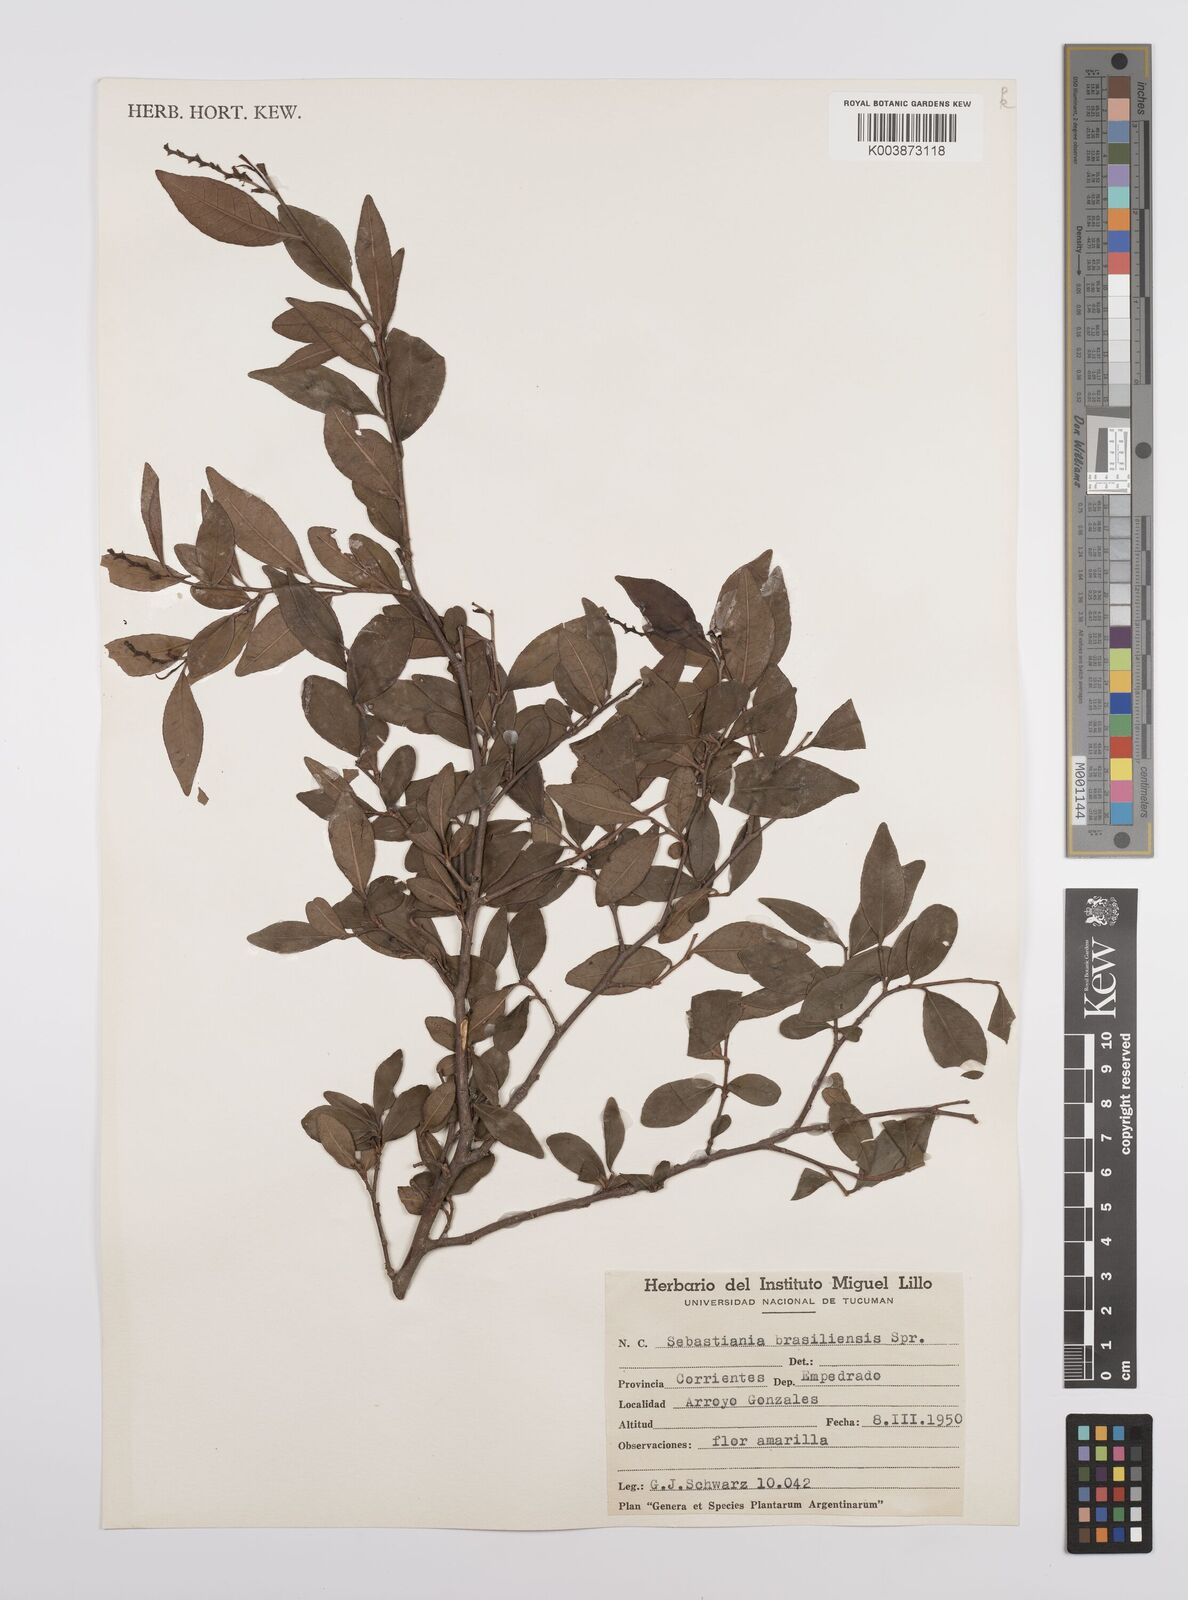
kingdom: Plantae
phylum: Tracheophyta
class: Magnoliopsida
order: Malpighiales
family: Euphorbiaceae
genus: Sebastiania
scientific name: Sebastiania brasiliensis
